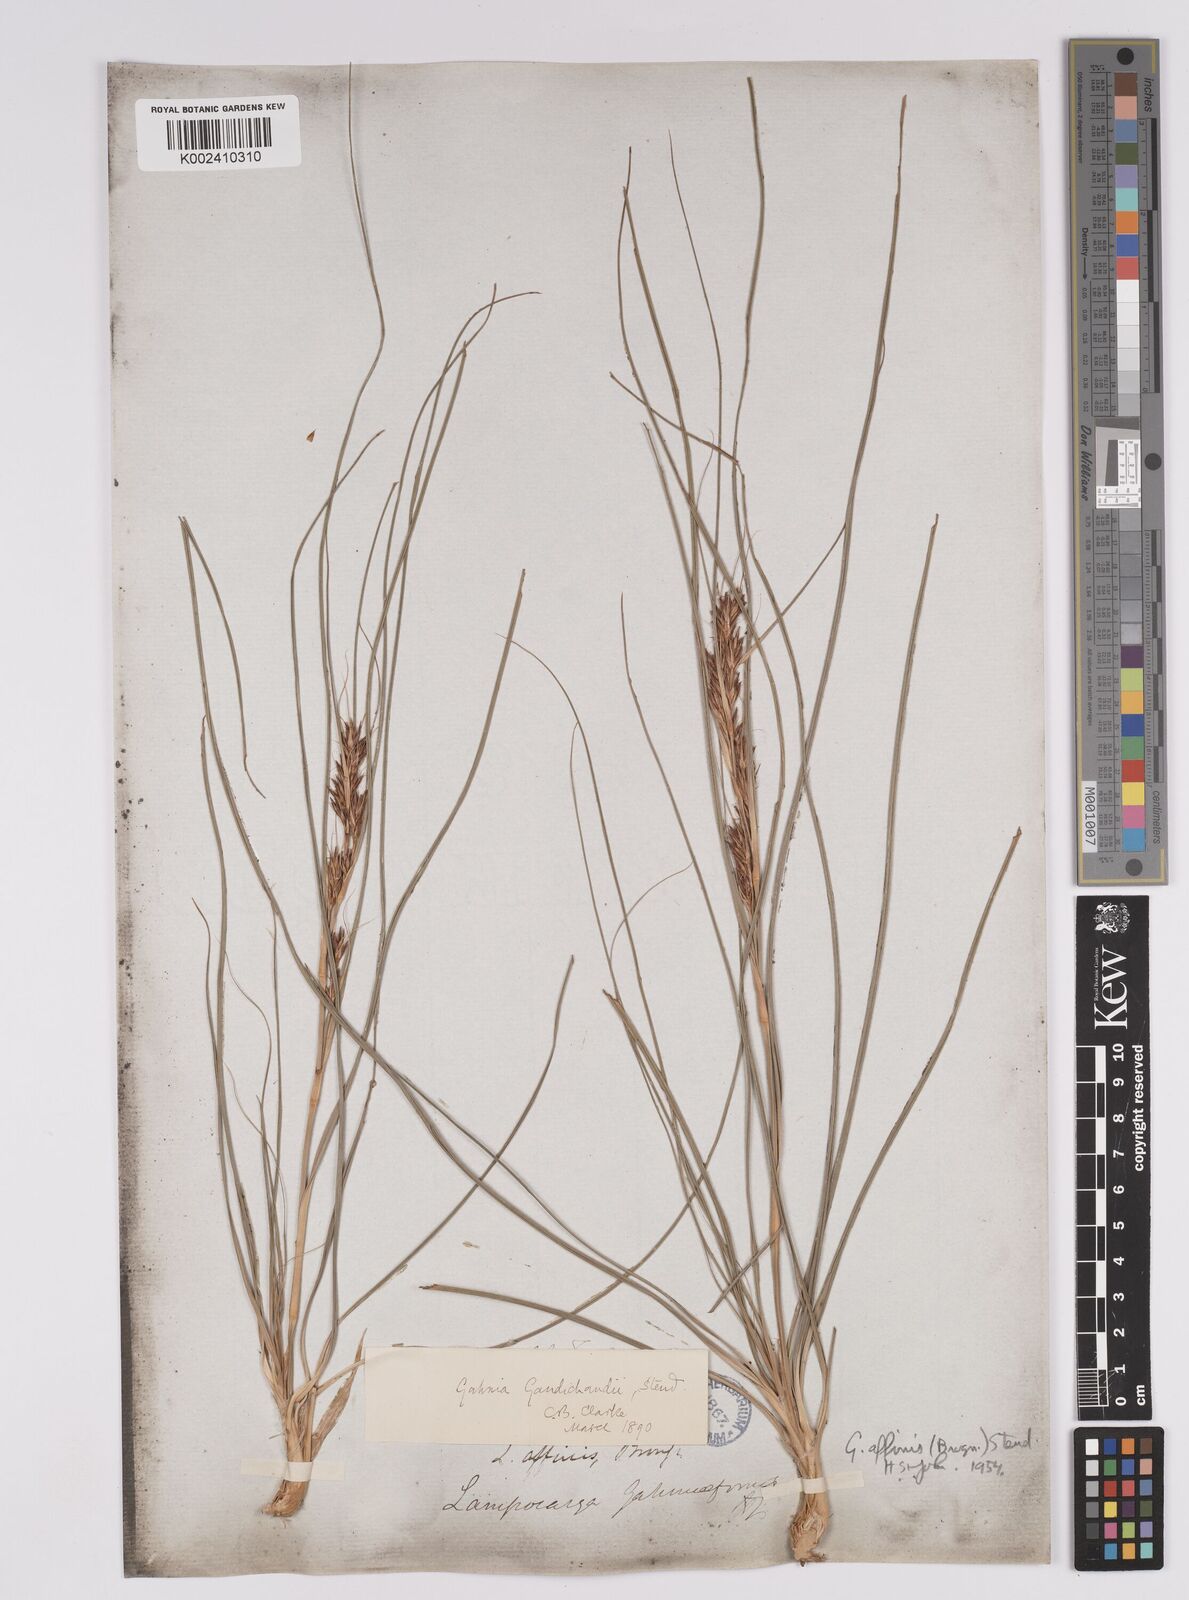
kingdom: Plantae
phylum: Tracheophyta
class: Liliopsida
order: Poales
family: Cyperaceae
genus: Morelotia
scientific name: Morelotia affinis
